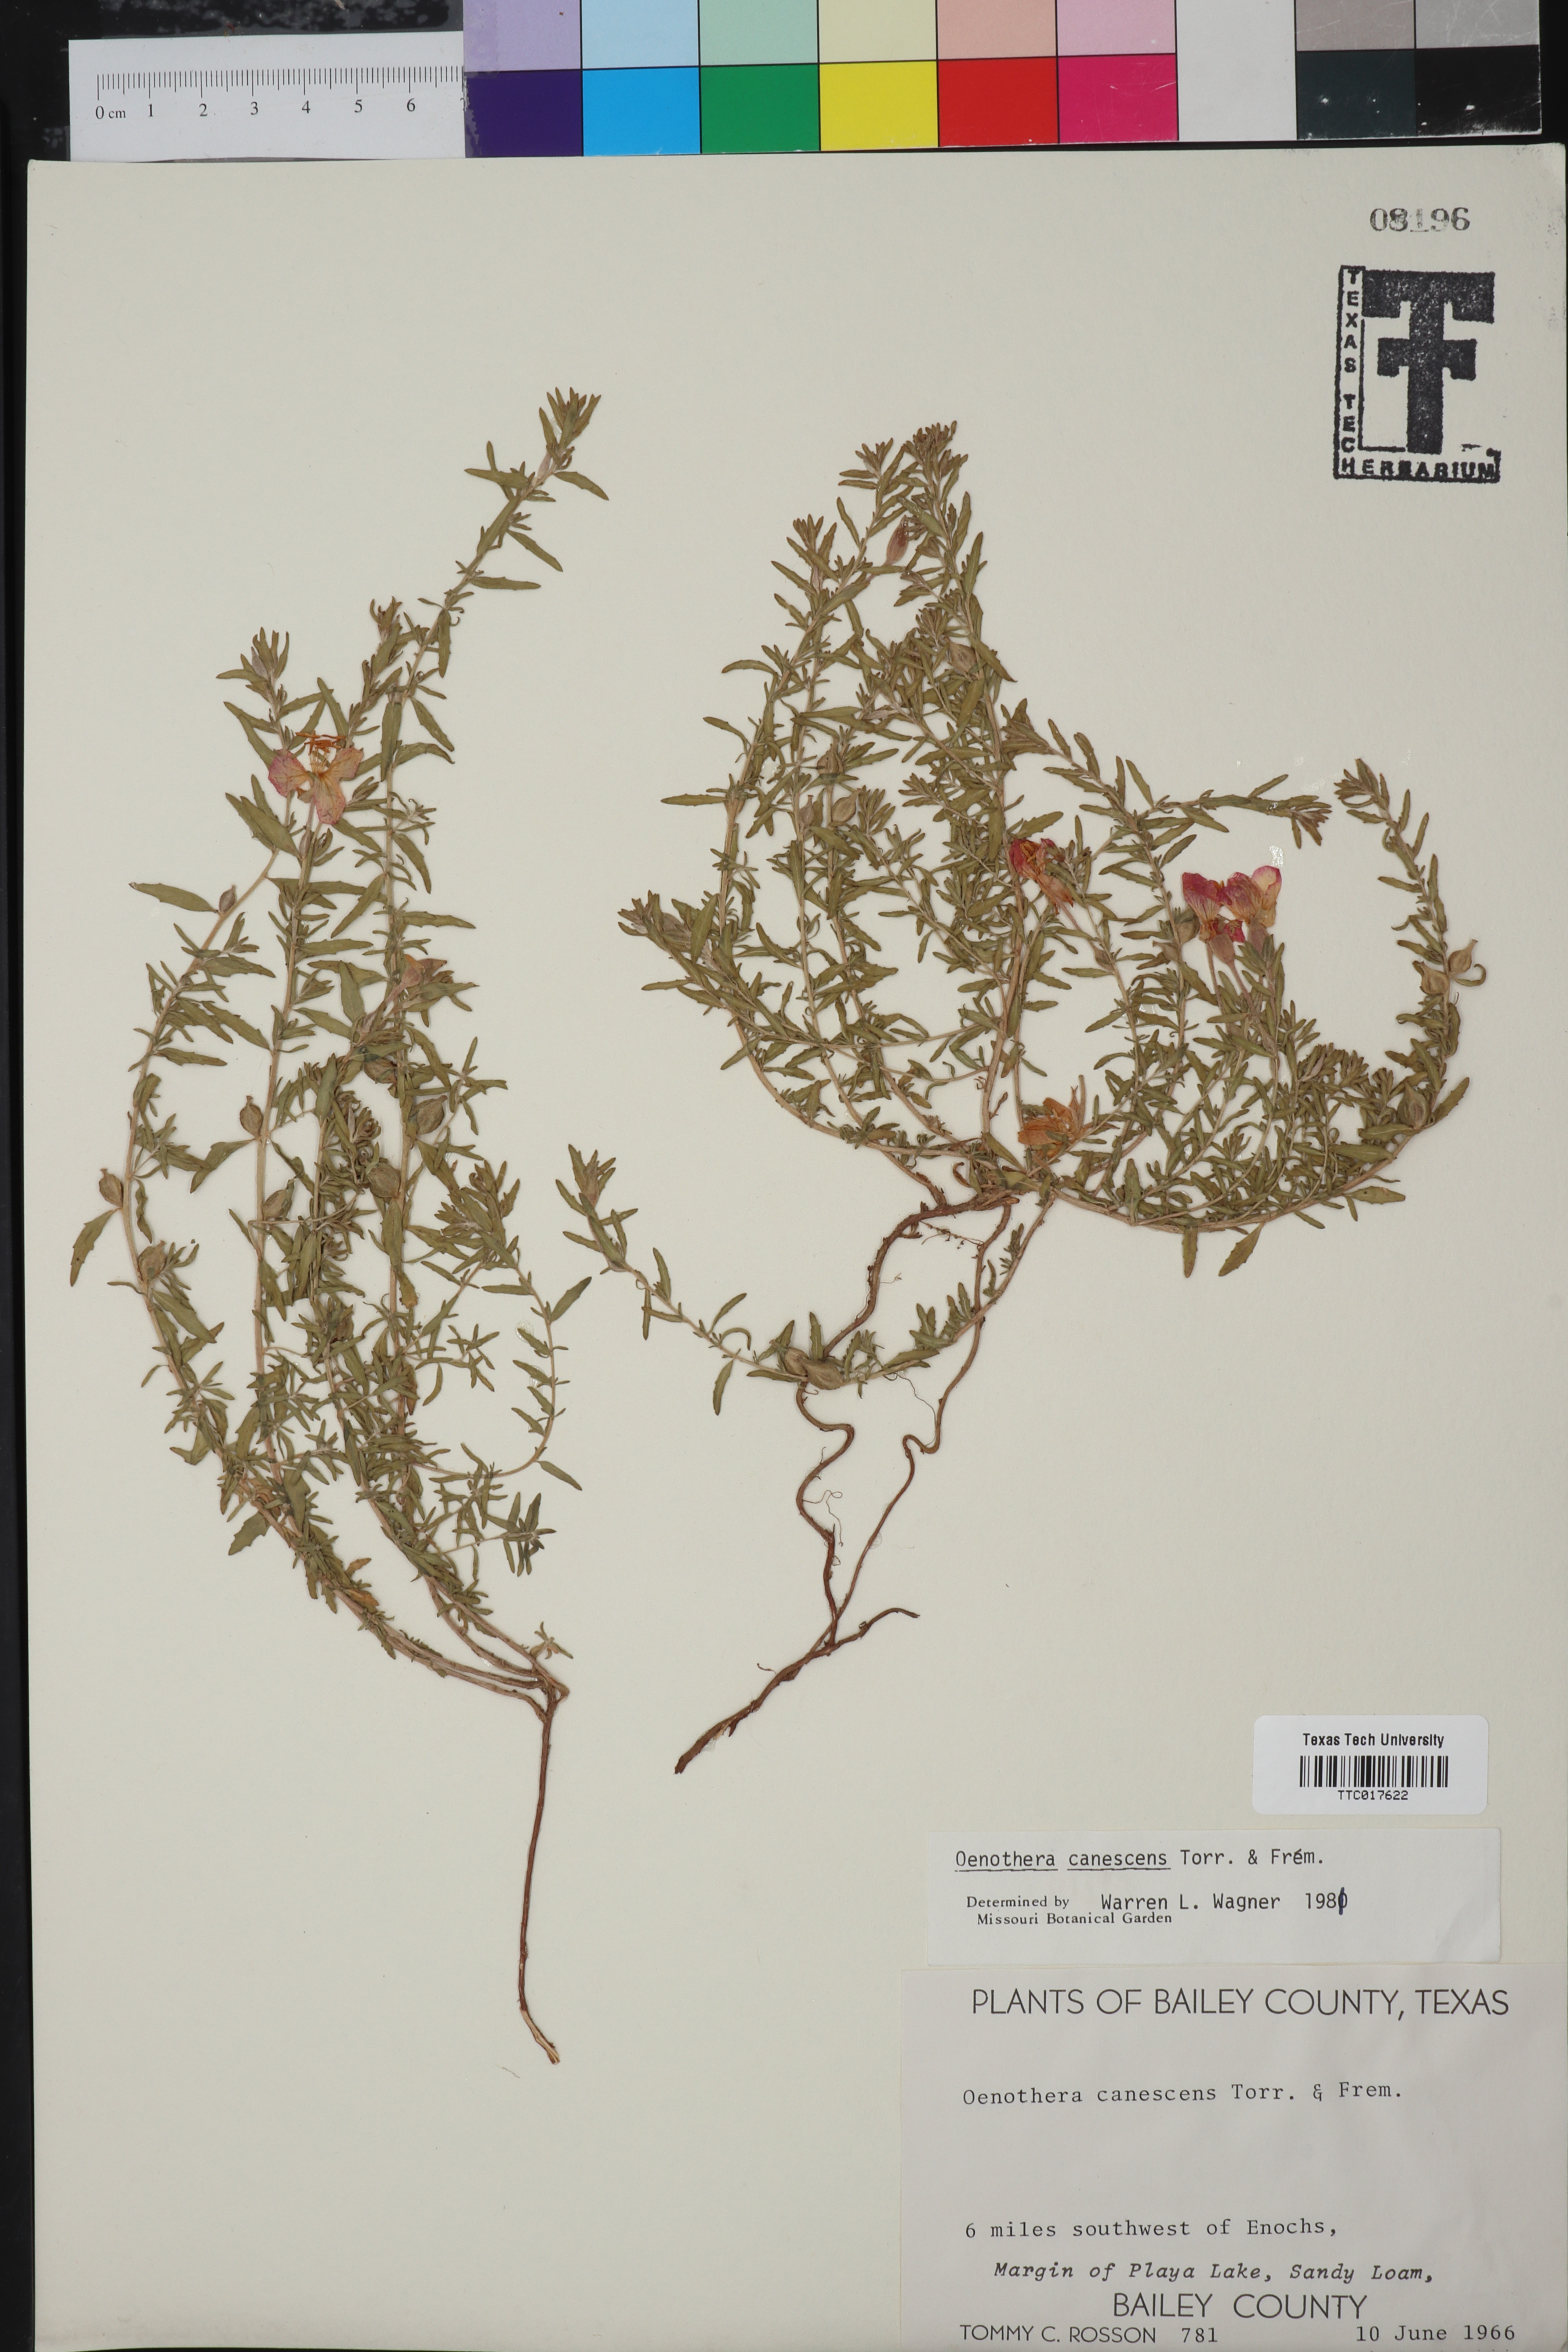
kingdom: Plantae
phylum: Tracheophyta
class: Magnoliopsida
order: Myrtales
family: Onagraceae
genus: Oenothera
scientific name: Oenothera canescens
